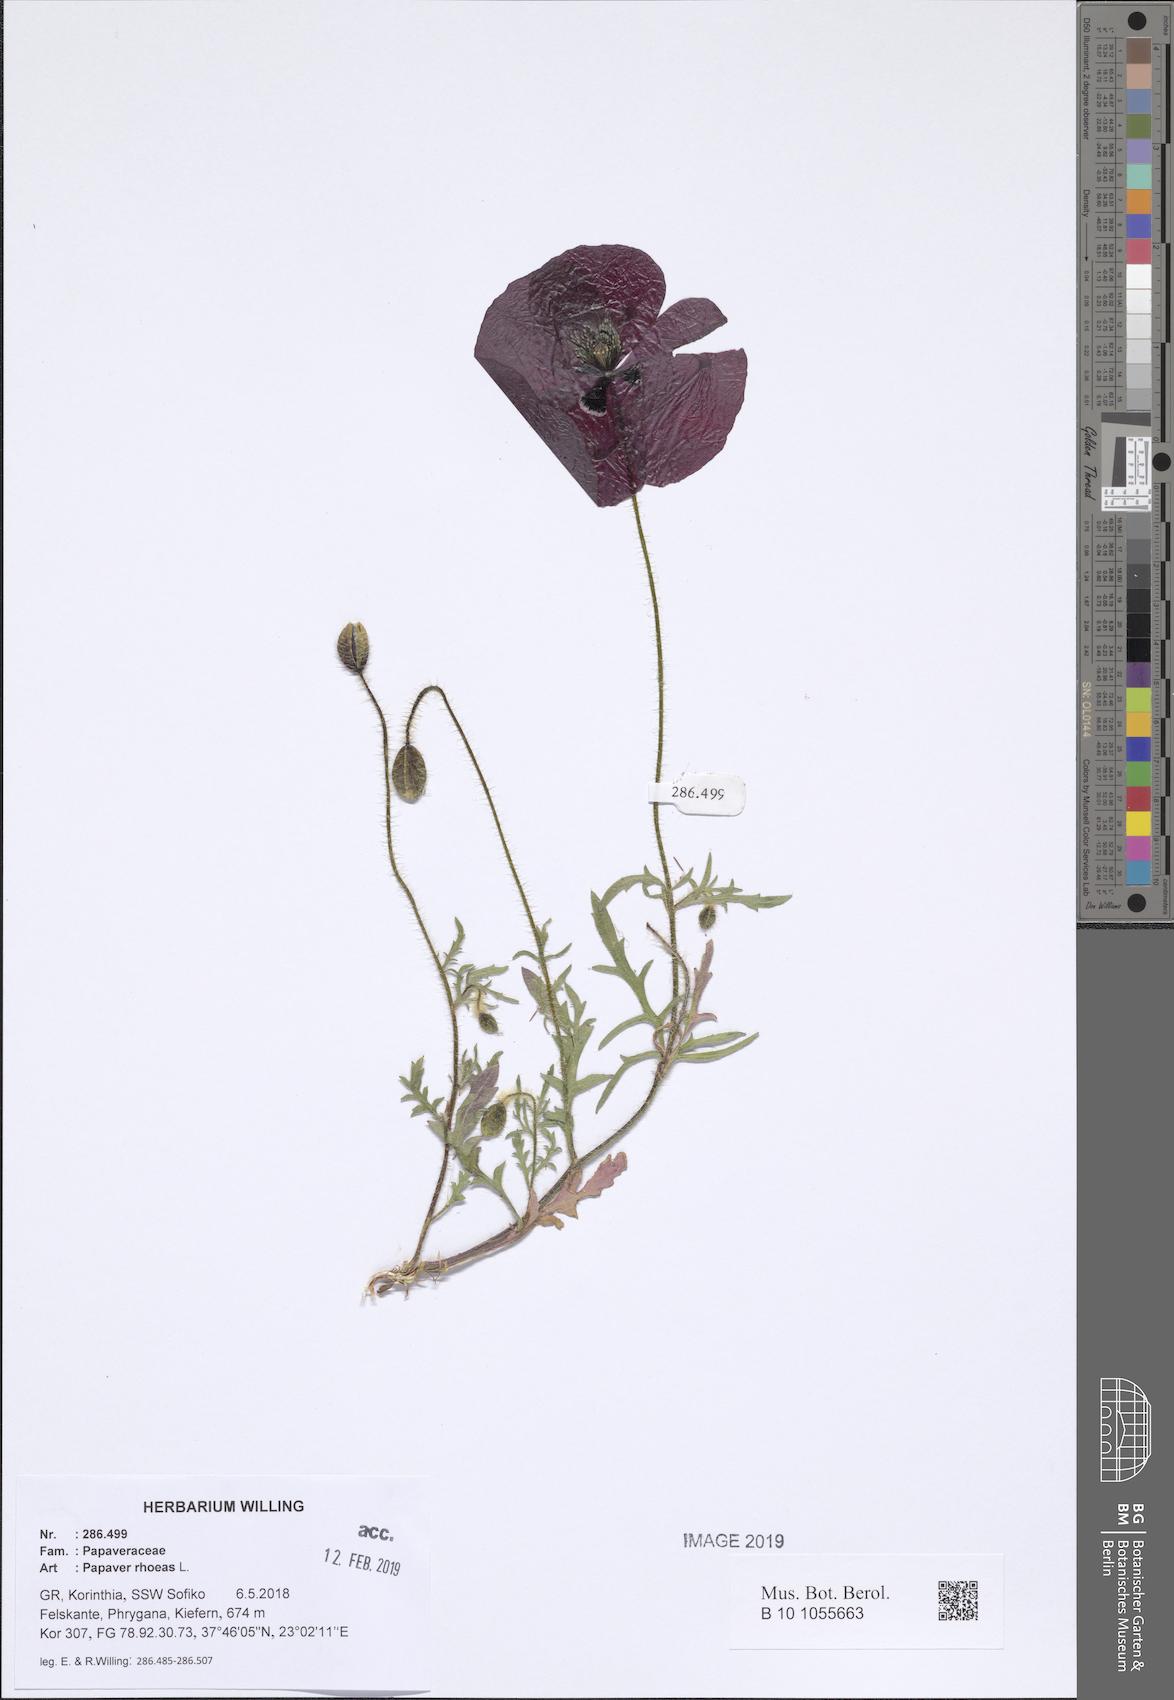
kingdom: Plantae
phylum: Tracheophyta
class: Magnoliopsida
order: Ranunculales
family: Papaveraceae
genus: Papaver
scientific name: Papaver rhoeas
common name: Corn poppy
